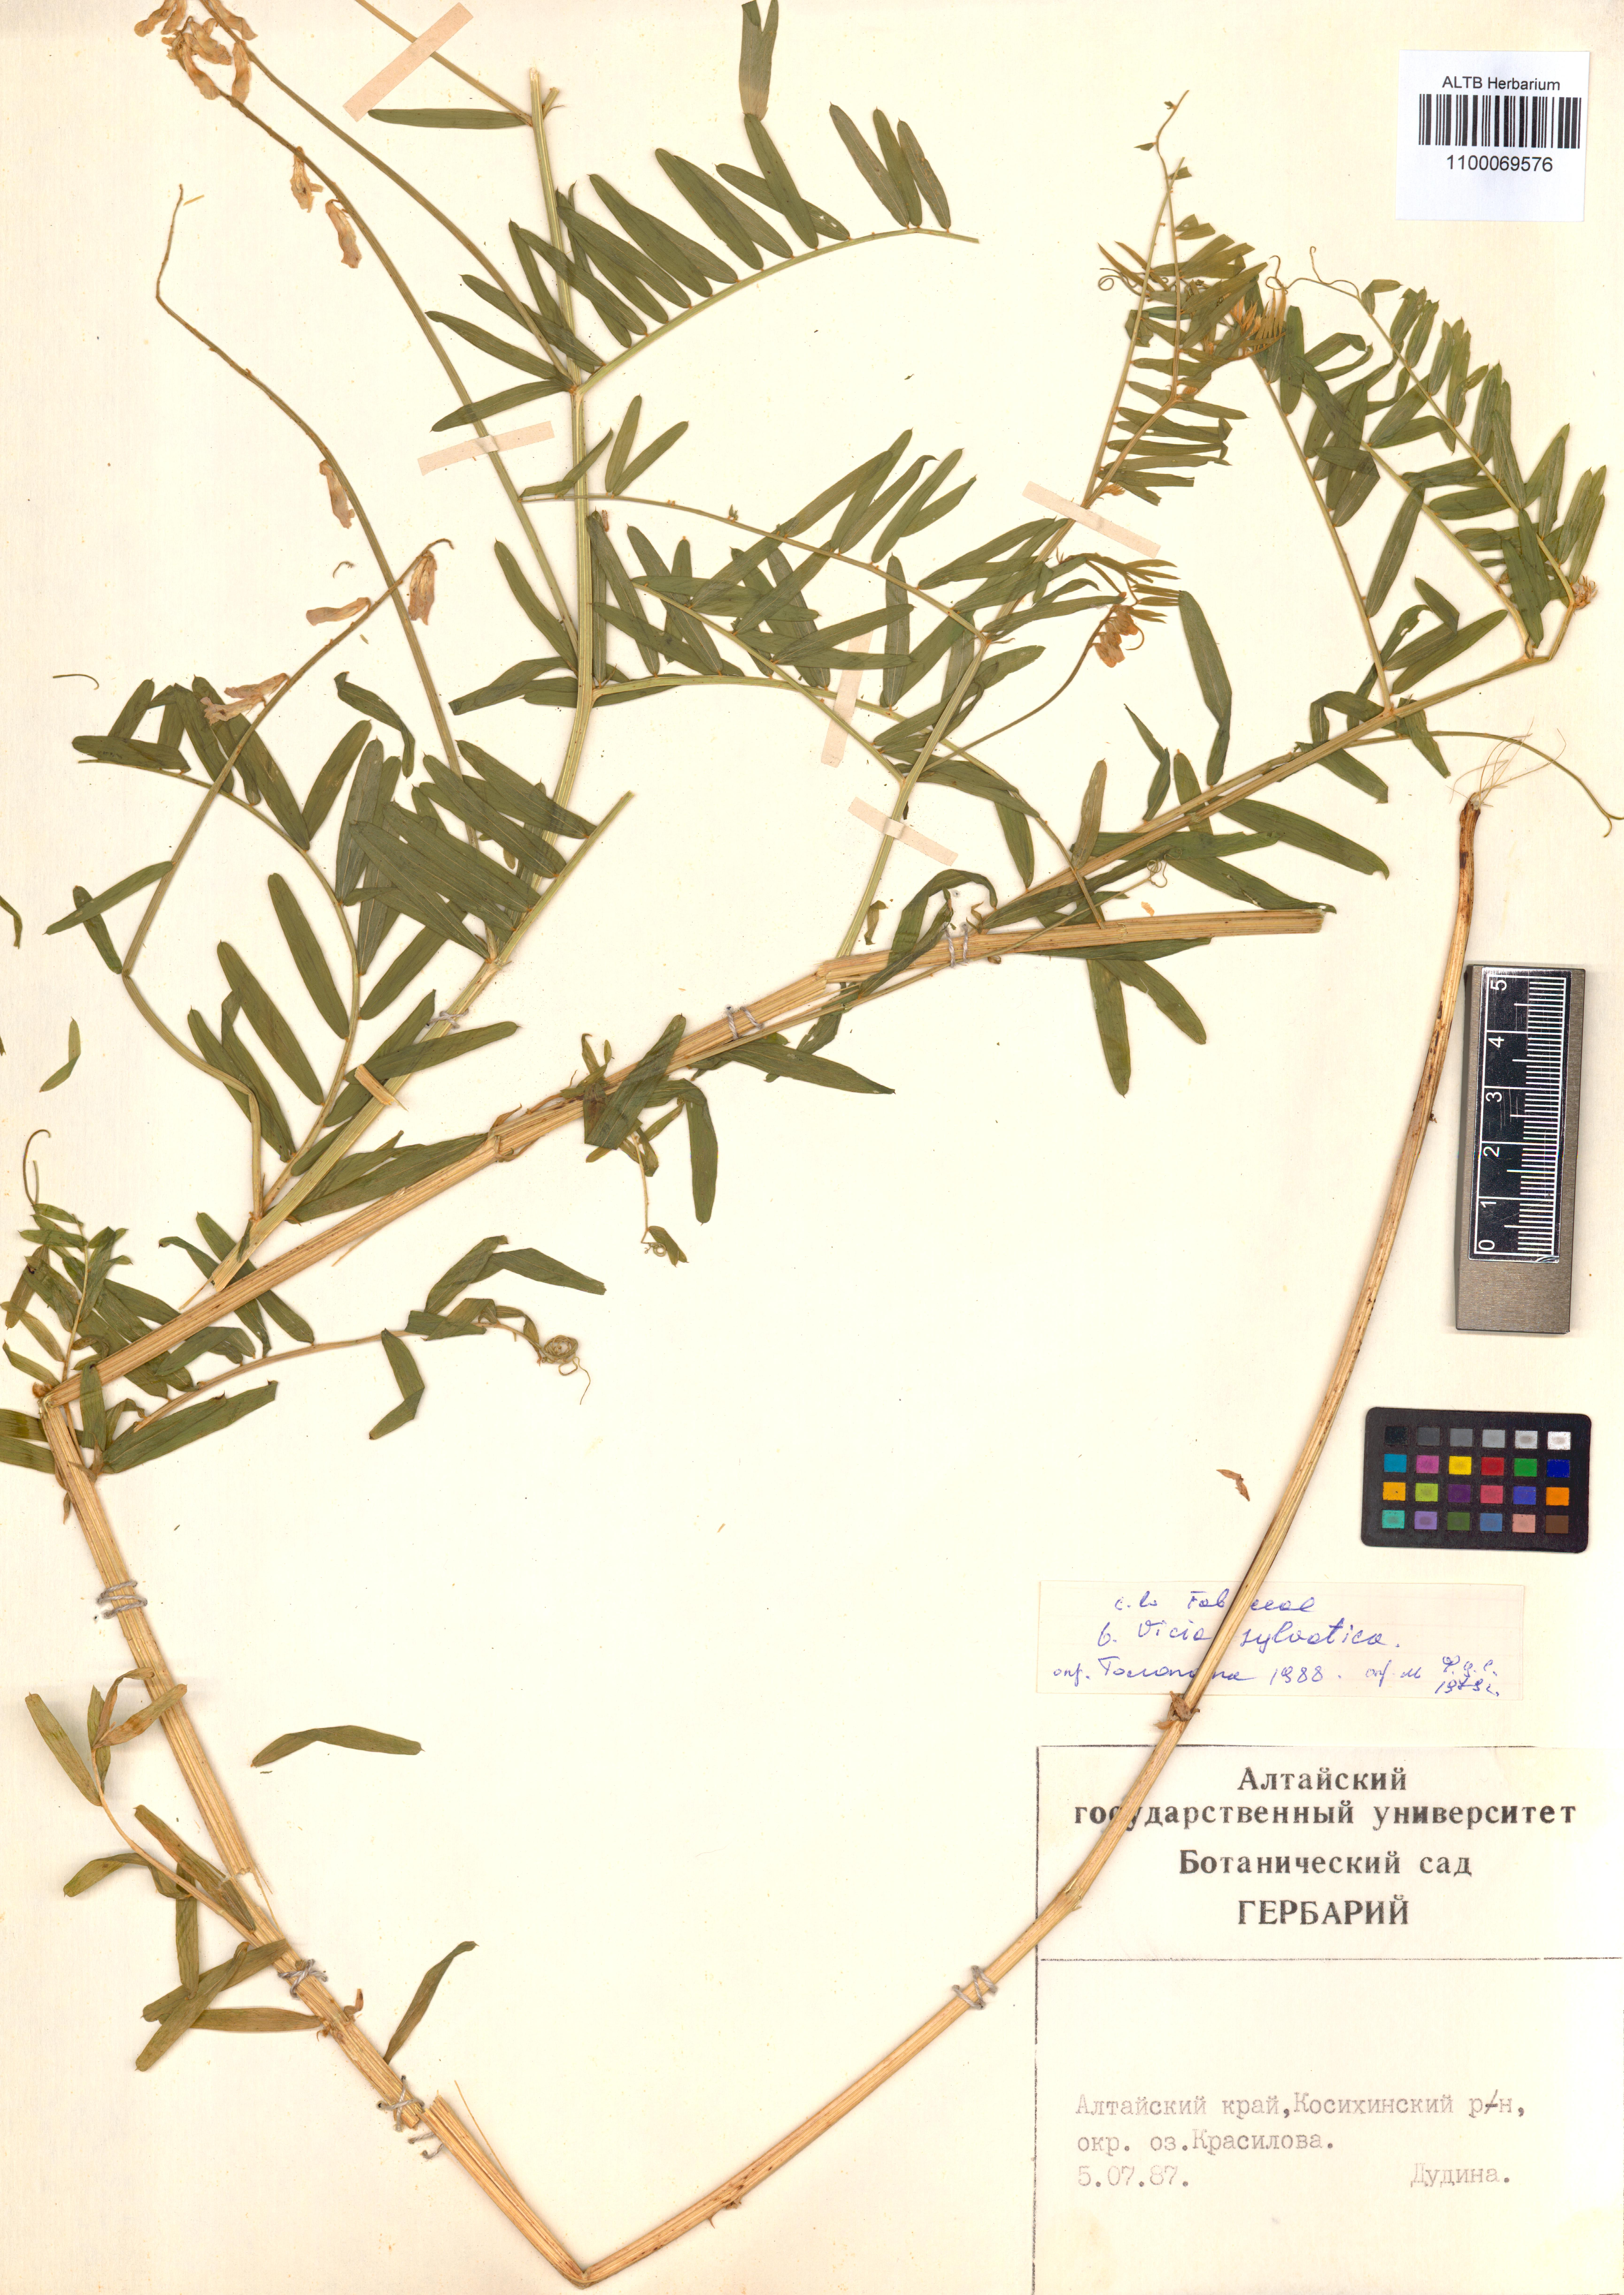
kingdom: Plantae
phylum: Tracheophyta
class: Magnoliopsida
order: Fabales
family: Fabaceae
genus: Vicia
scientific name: Vicia bakeri
